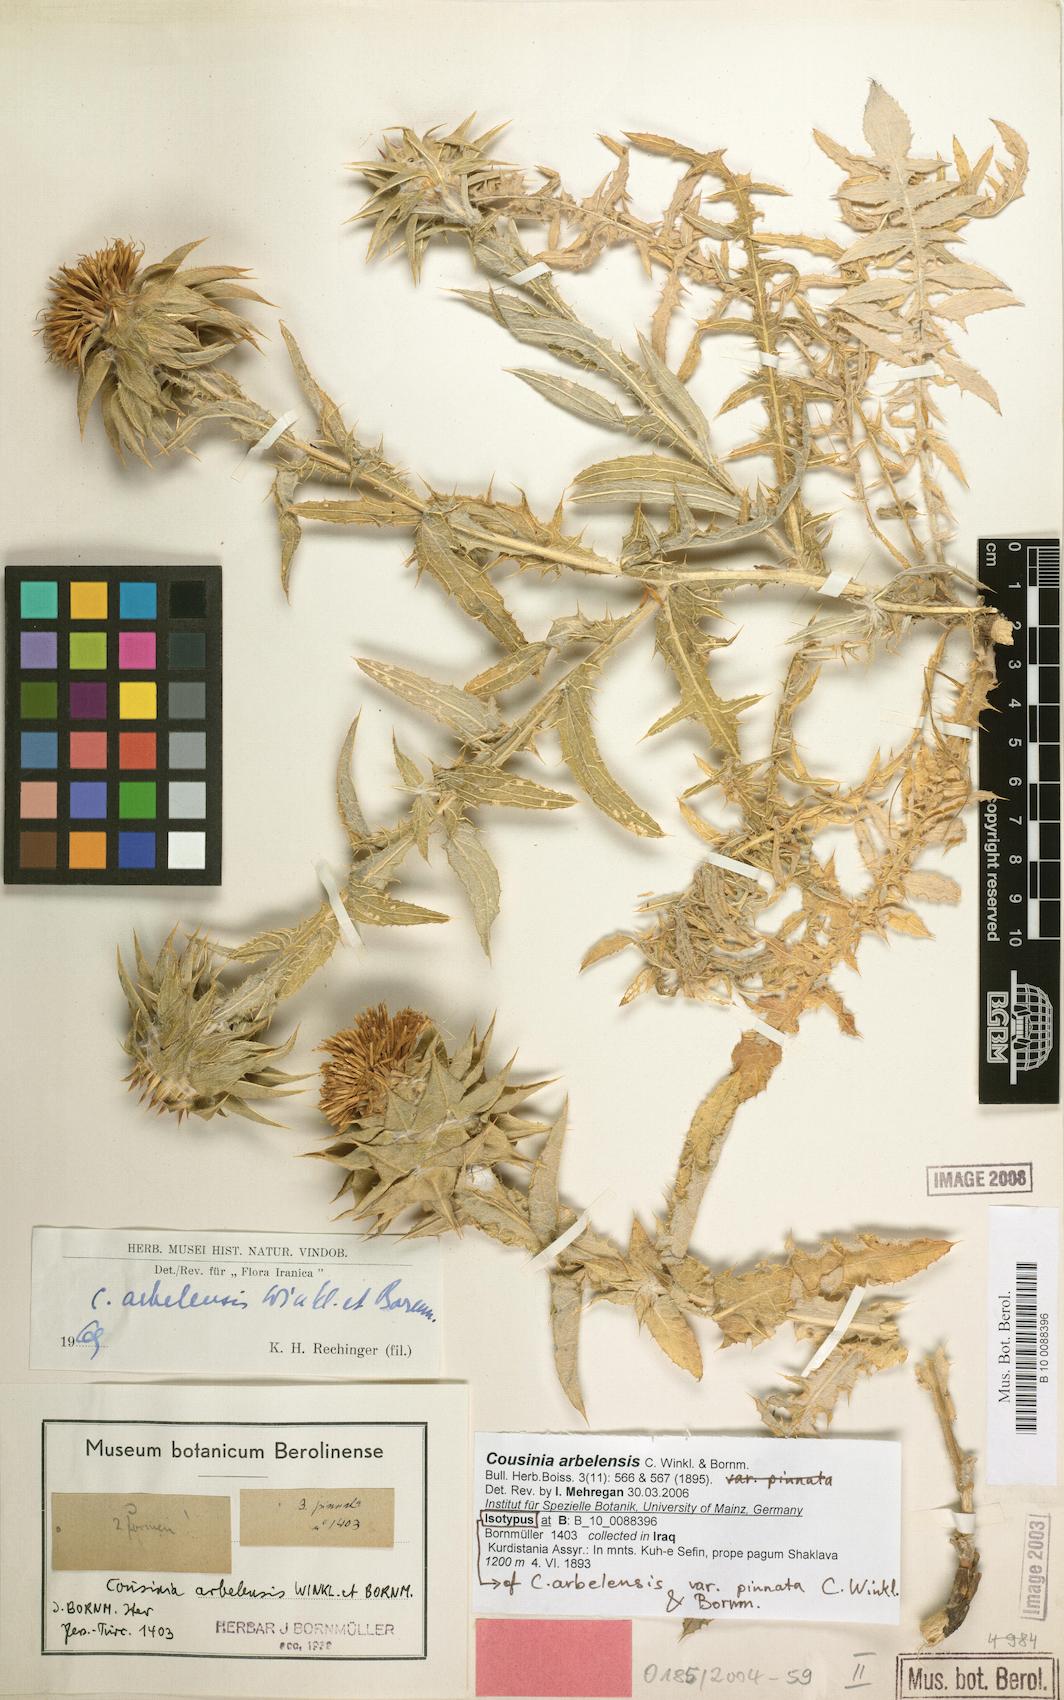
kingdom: Plantae
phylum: Tracheophyta
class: Magnoliopsida
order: Asterales
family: Asteraceae
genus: Cousinia
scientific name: Cousinia aintabensis
